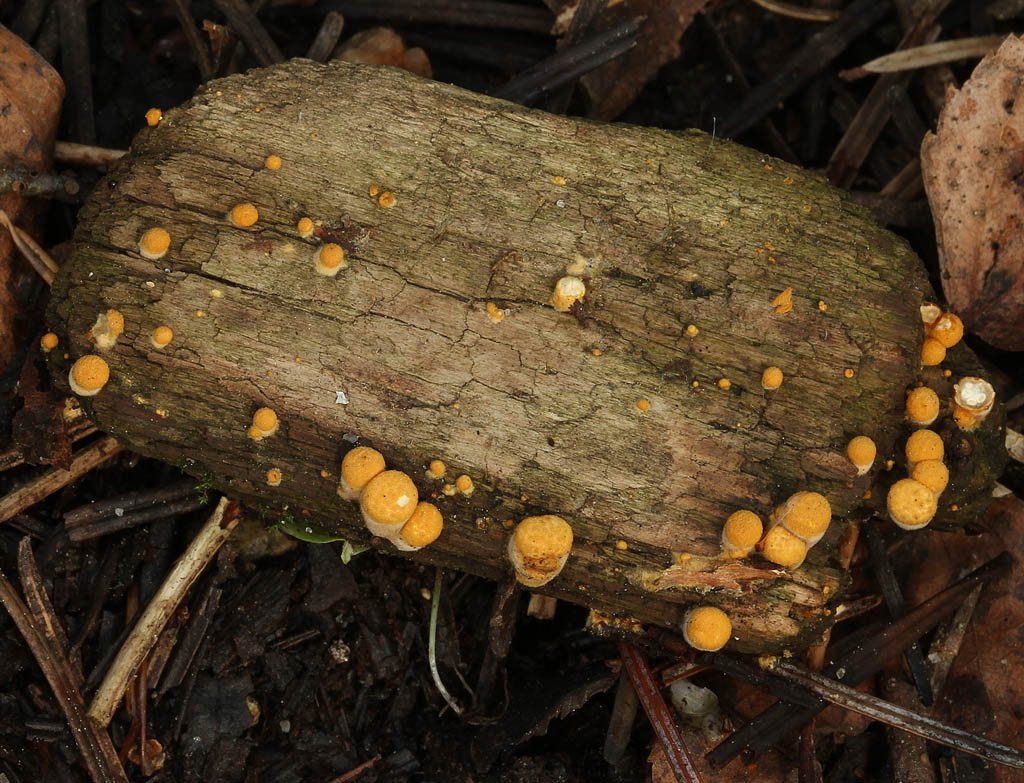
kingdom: Fungi
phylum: Basidiomycota
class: Agaricomycetes
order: Agaricales
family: Nidulariaceae
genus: Crucibulum
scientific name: Crucibulum crucibuliforme
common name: krukkesvamp
